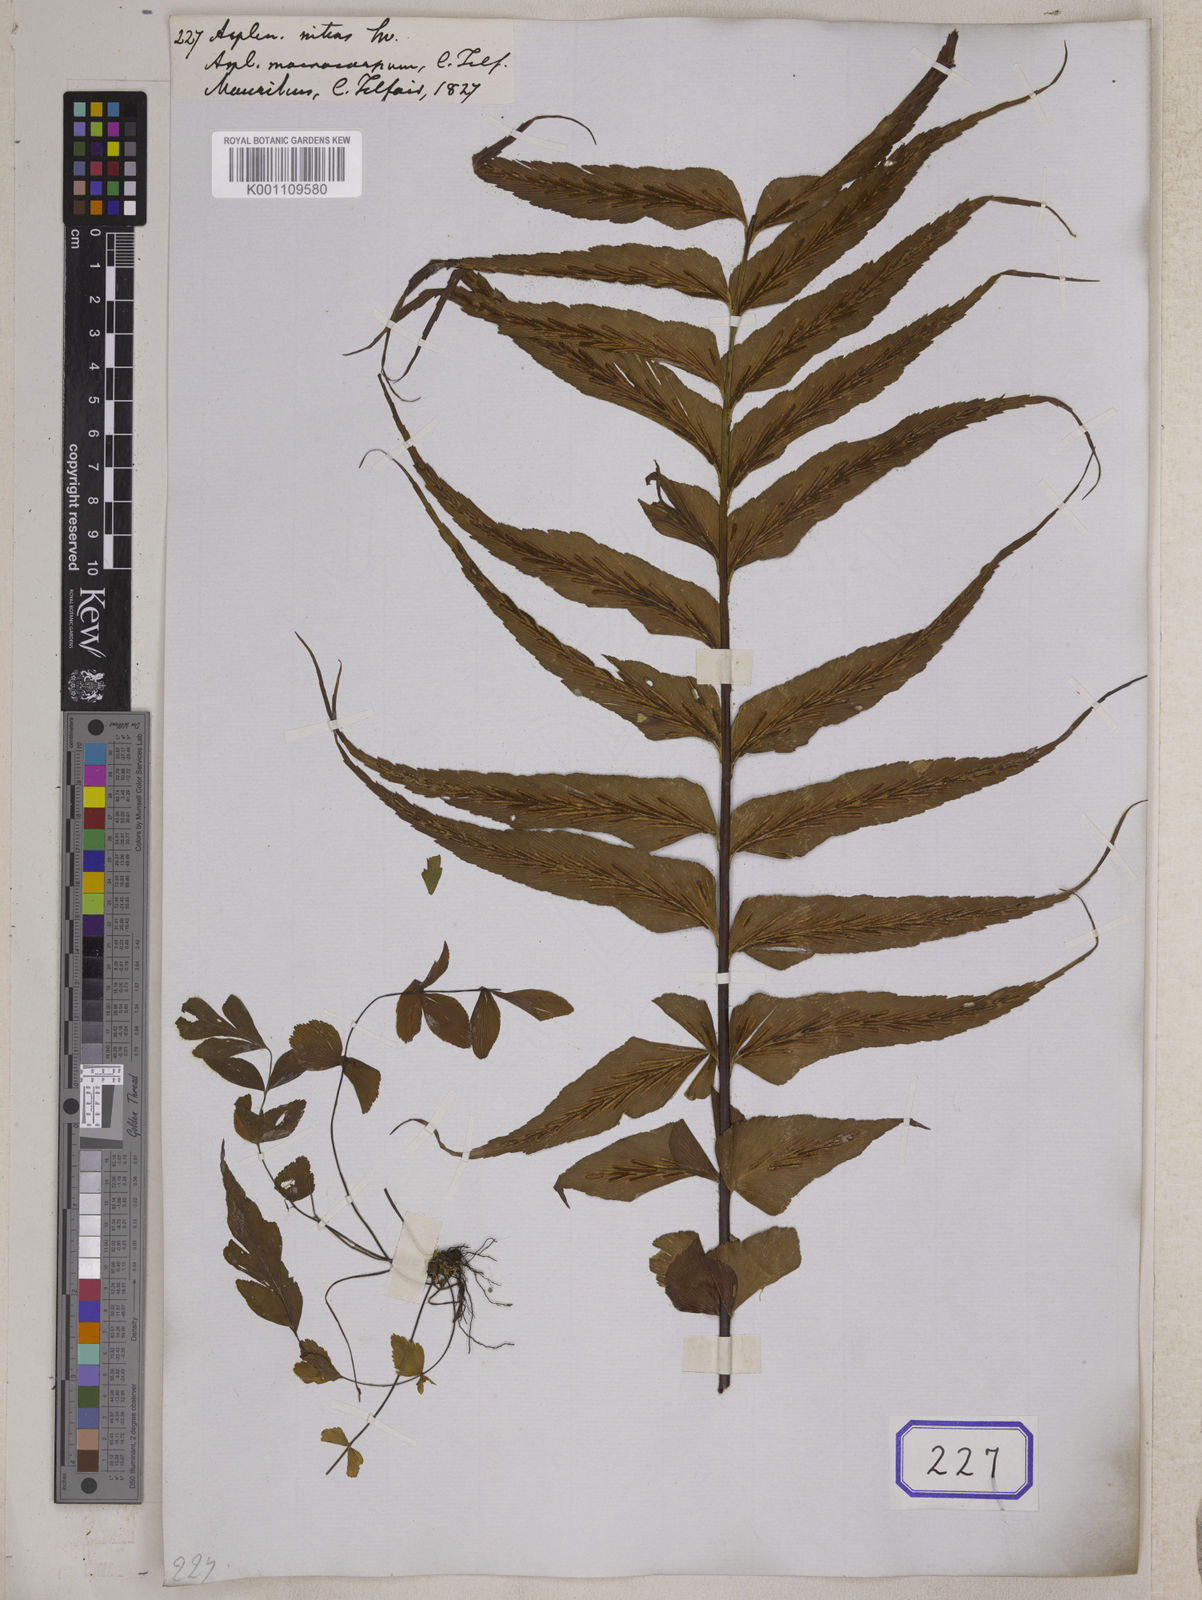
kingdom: Plantae
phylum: Tracheophyta
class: Polypodiopsida
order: Polypodiales
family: Aspleniaceae
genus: Asplenium
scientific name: Asplenium nitens
